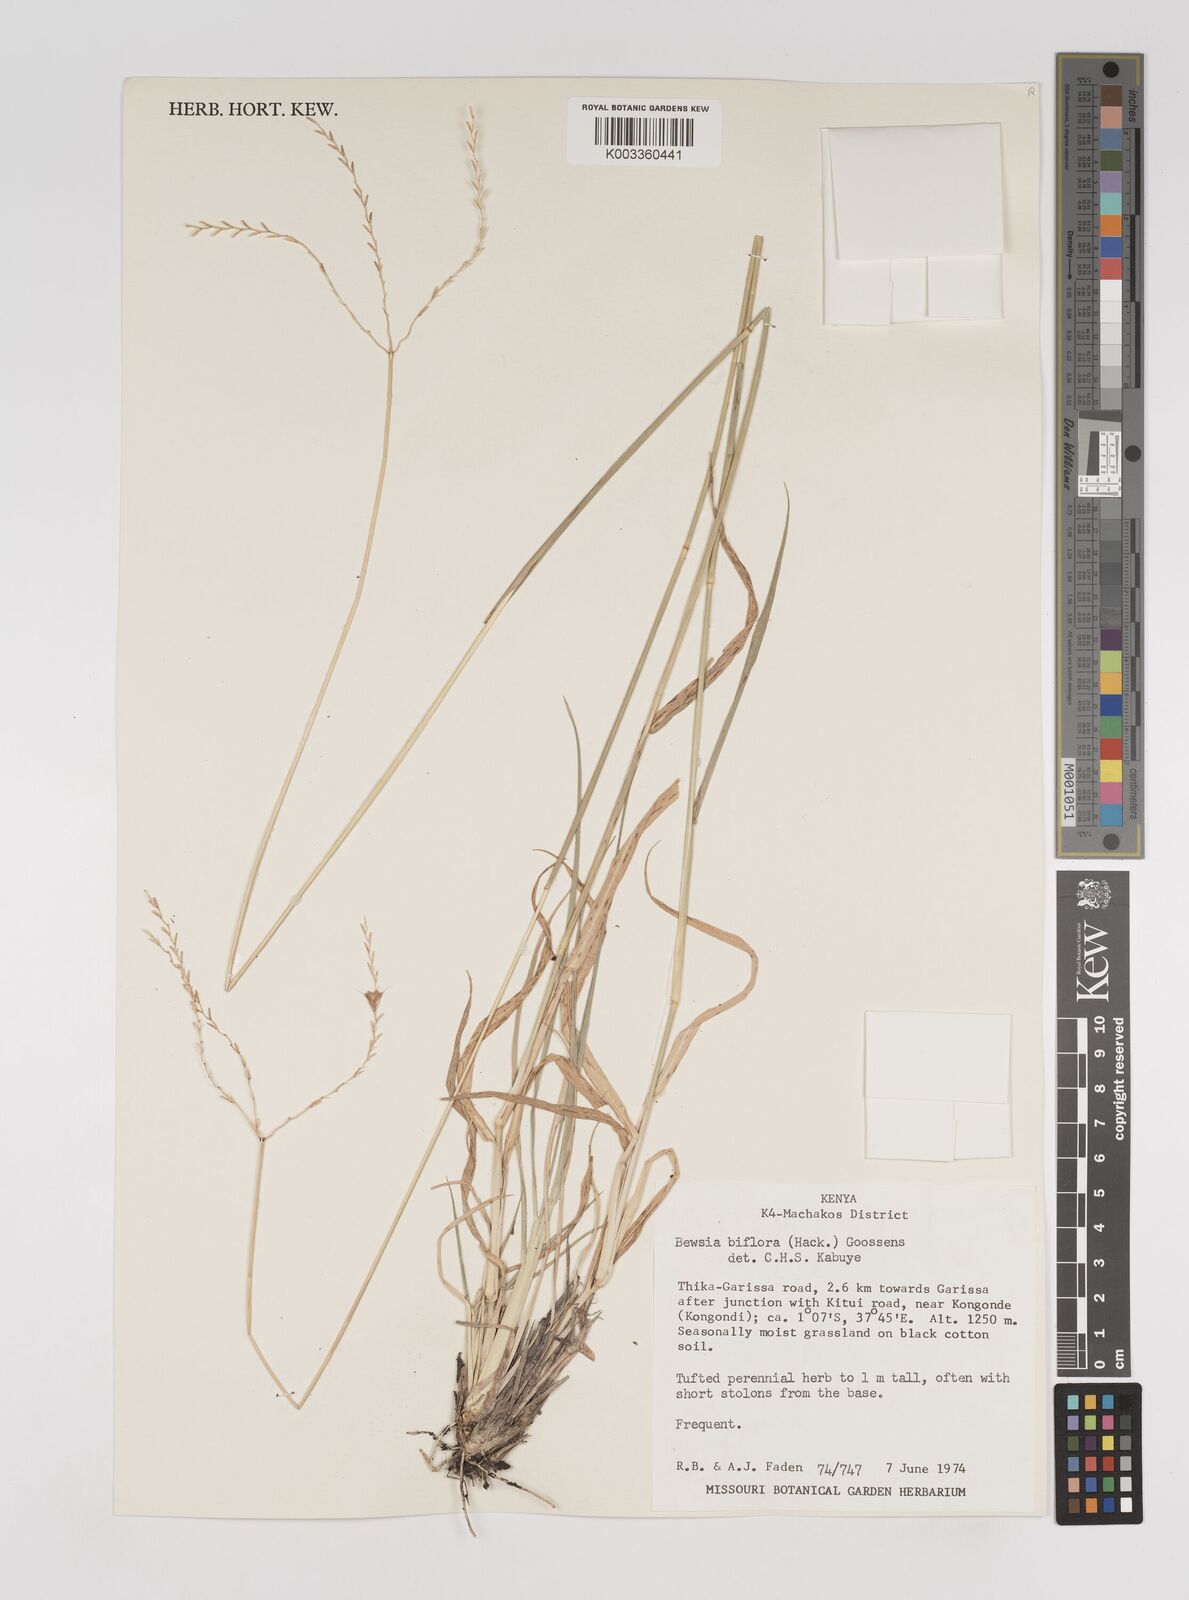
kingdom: Plantae
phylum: Tracheophyta
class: Liliopsida
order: Poales
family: Poaceae
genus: Bewsia
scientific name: Bewsia biflora
